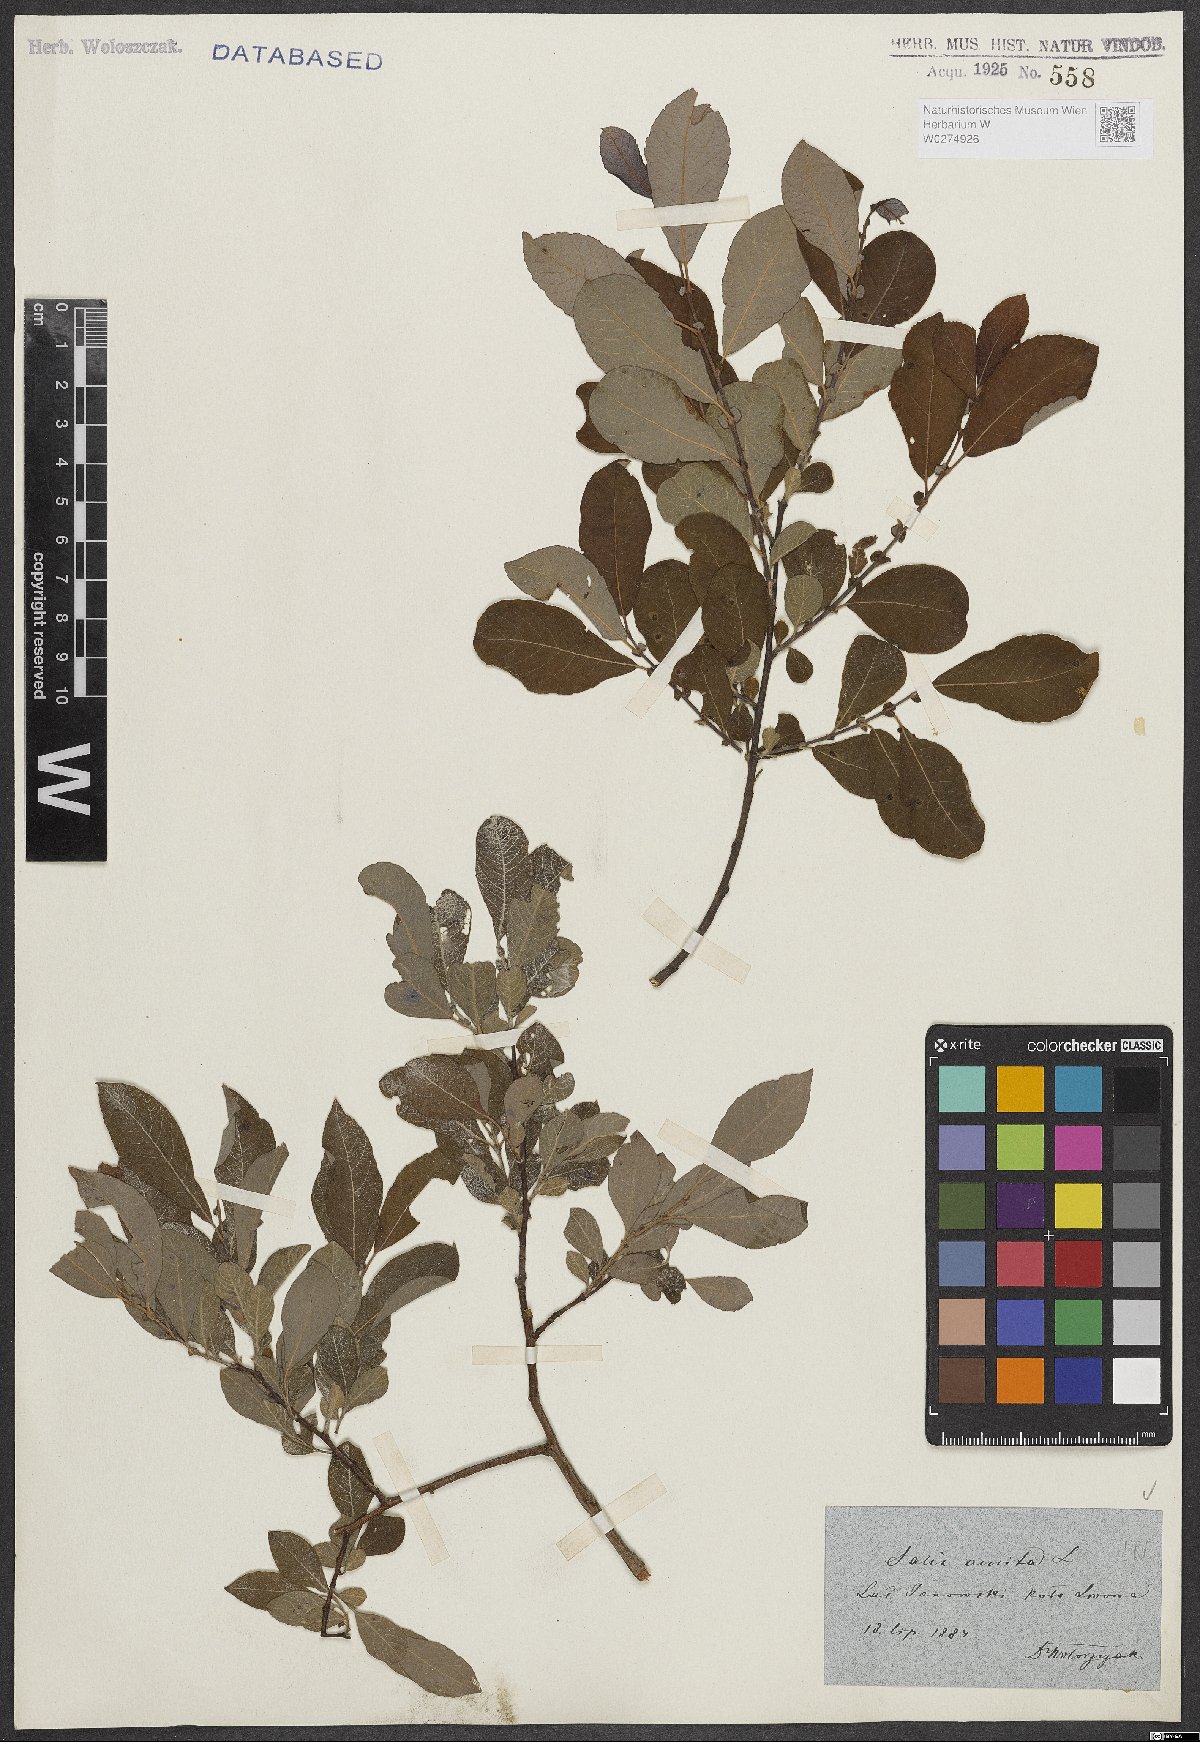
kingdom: Plantae
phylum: Tracheophyta
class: Magnoliopsida
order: Malpighiales
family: Salicaceae
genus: Salix
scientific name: Salix aurita
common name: Eared willow
